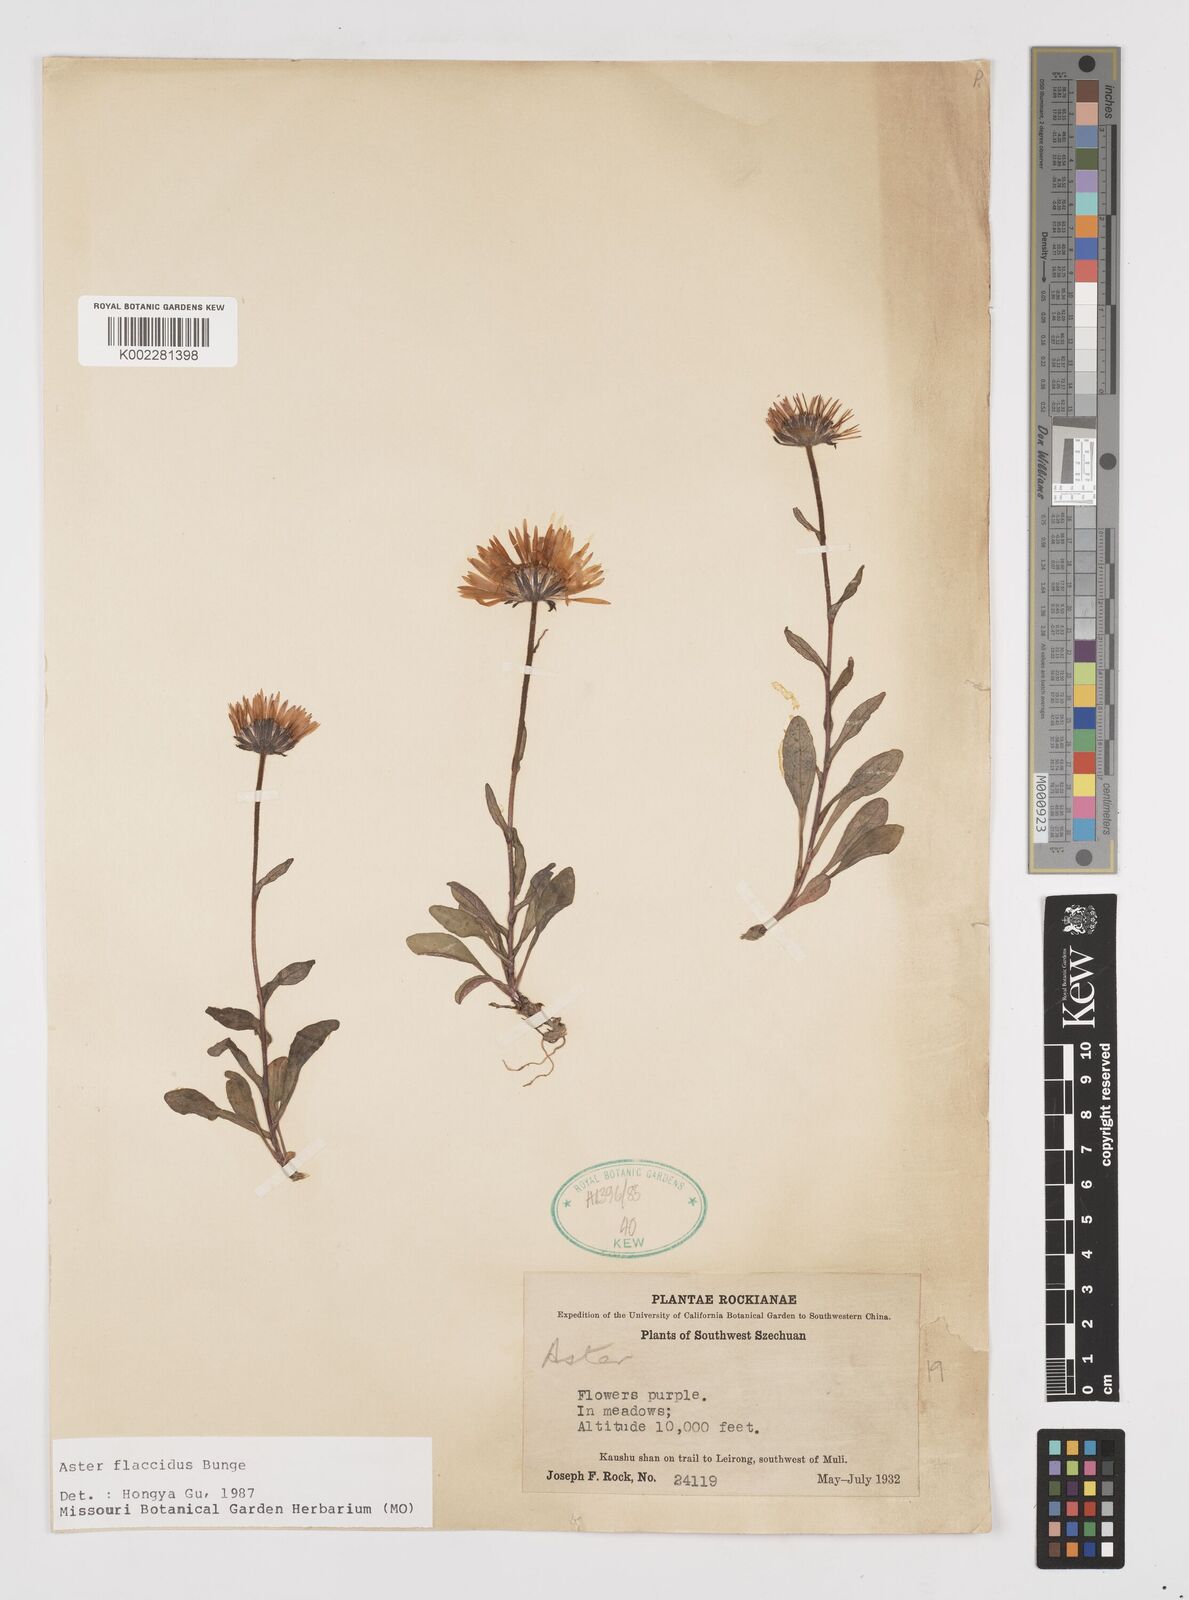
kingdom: Plantae
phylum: Tracheophyta
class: Magnoliopsida
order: Asterales
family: Asteraceae
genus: Tibetiodes
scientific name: Tibetiodes flaccida
